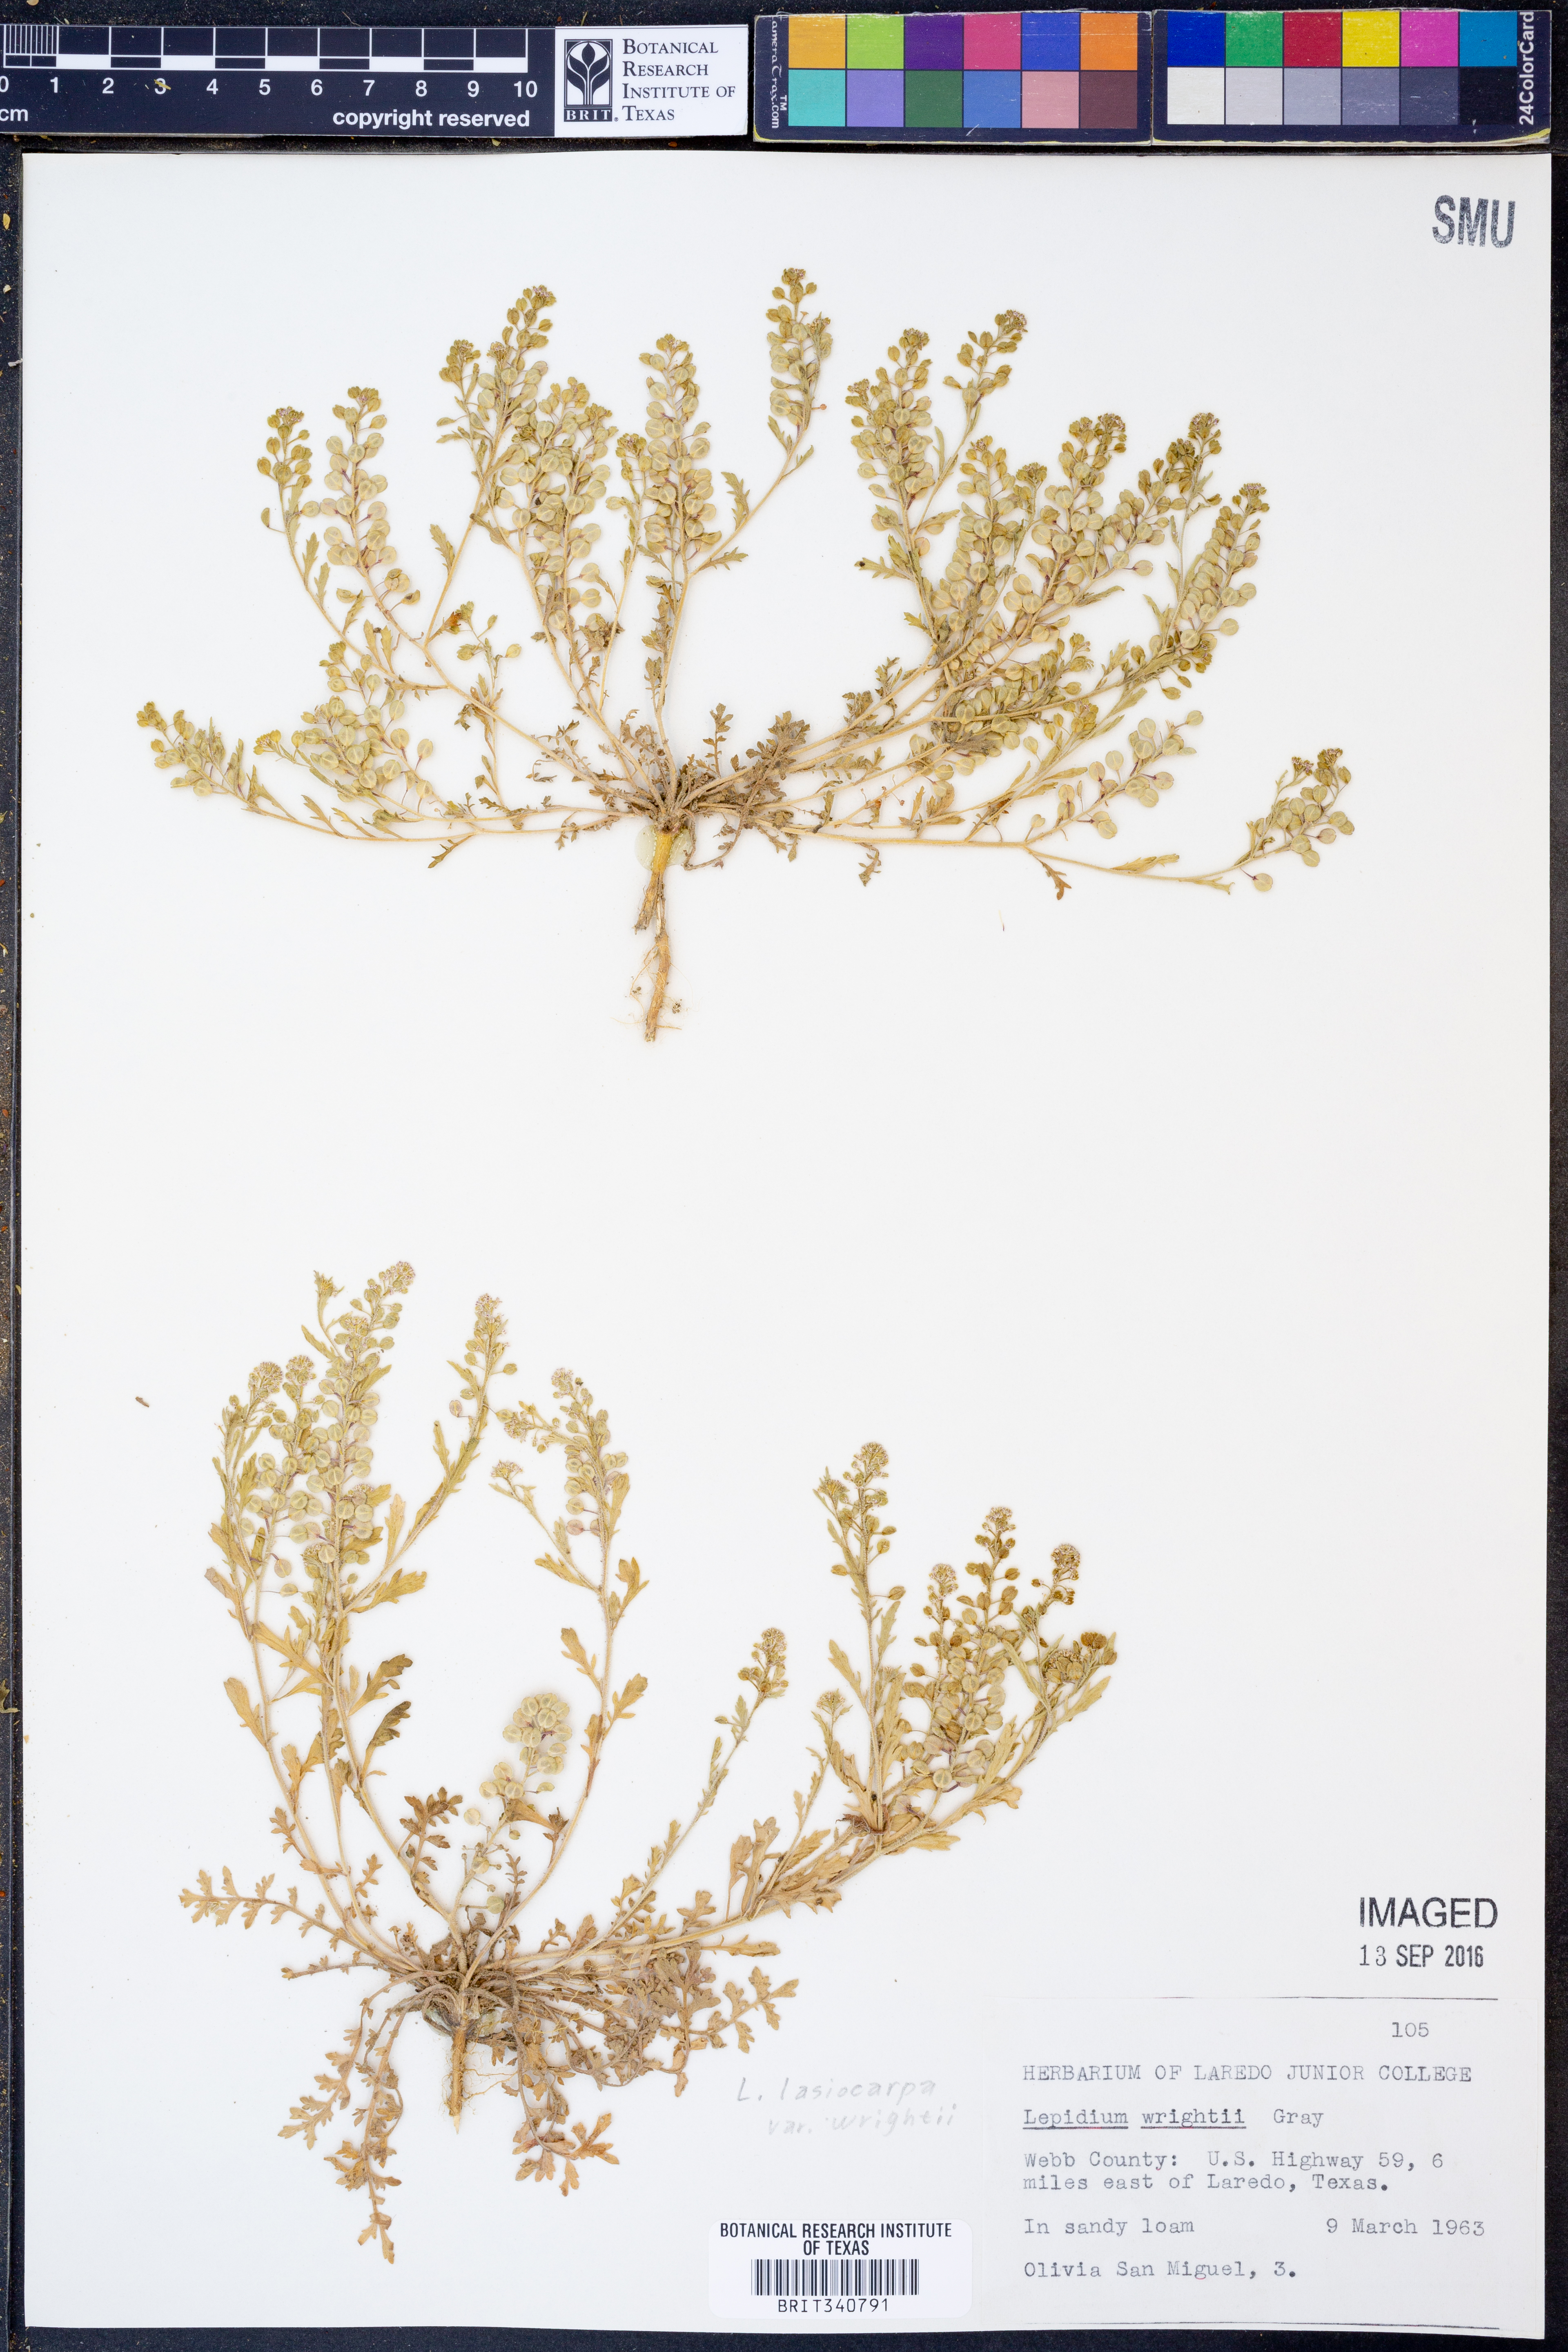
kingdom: Plantae
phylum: Tracheophyta
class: Magnoliopsida
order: Brassicales
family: Brassicaceae
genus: Lepidium
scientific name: Lepidium lasiocarpum
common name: Hairy-pod pepperwort
